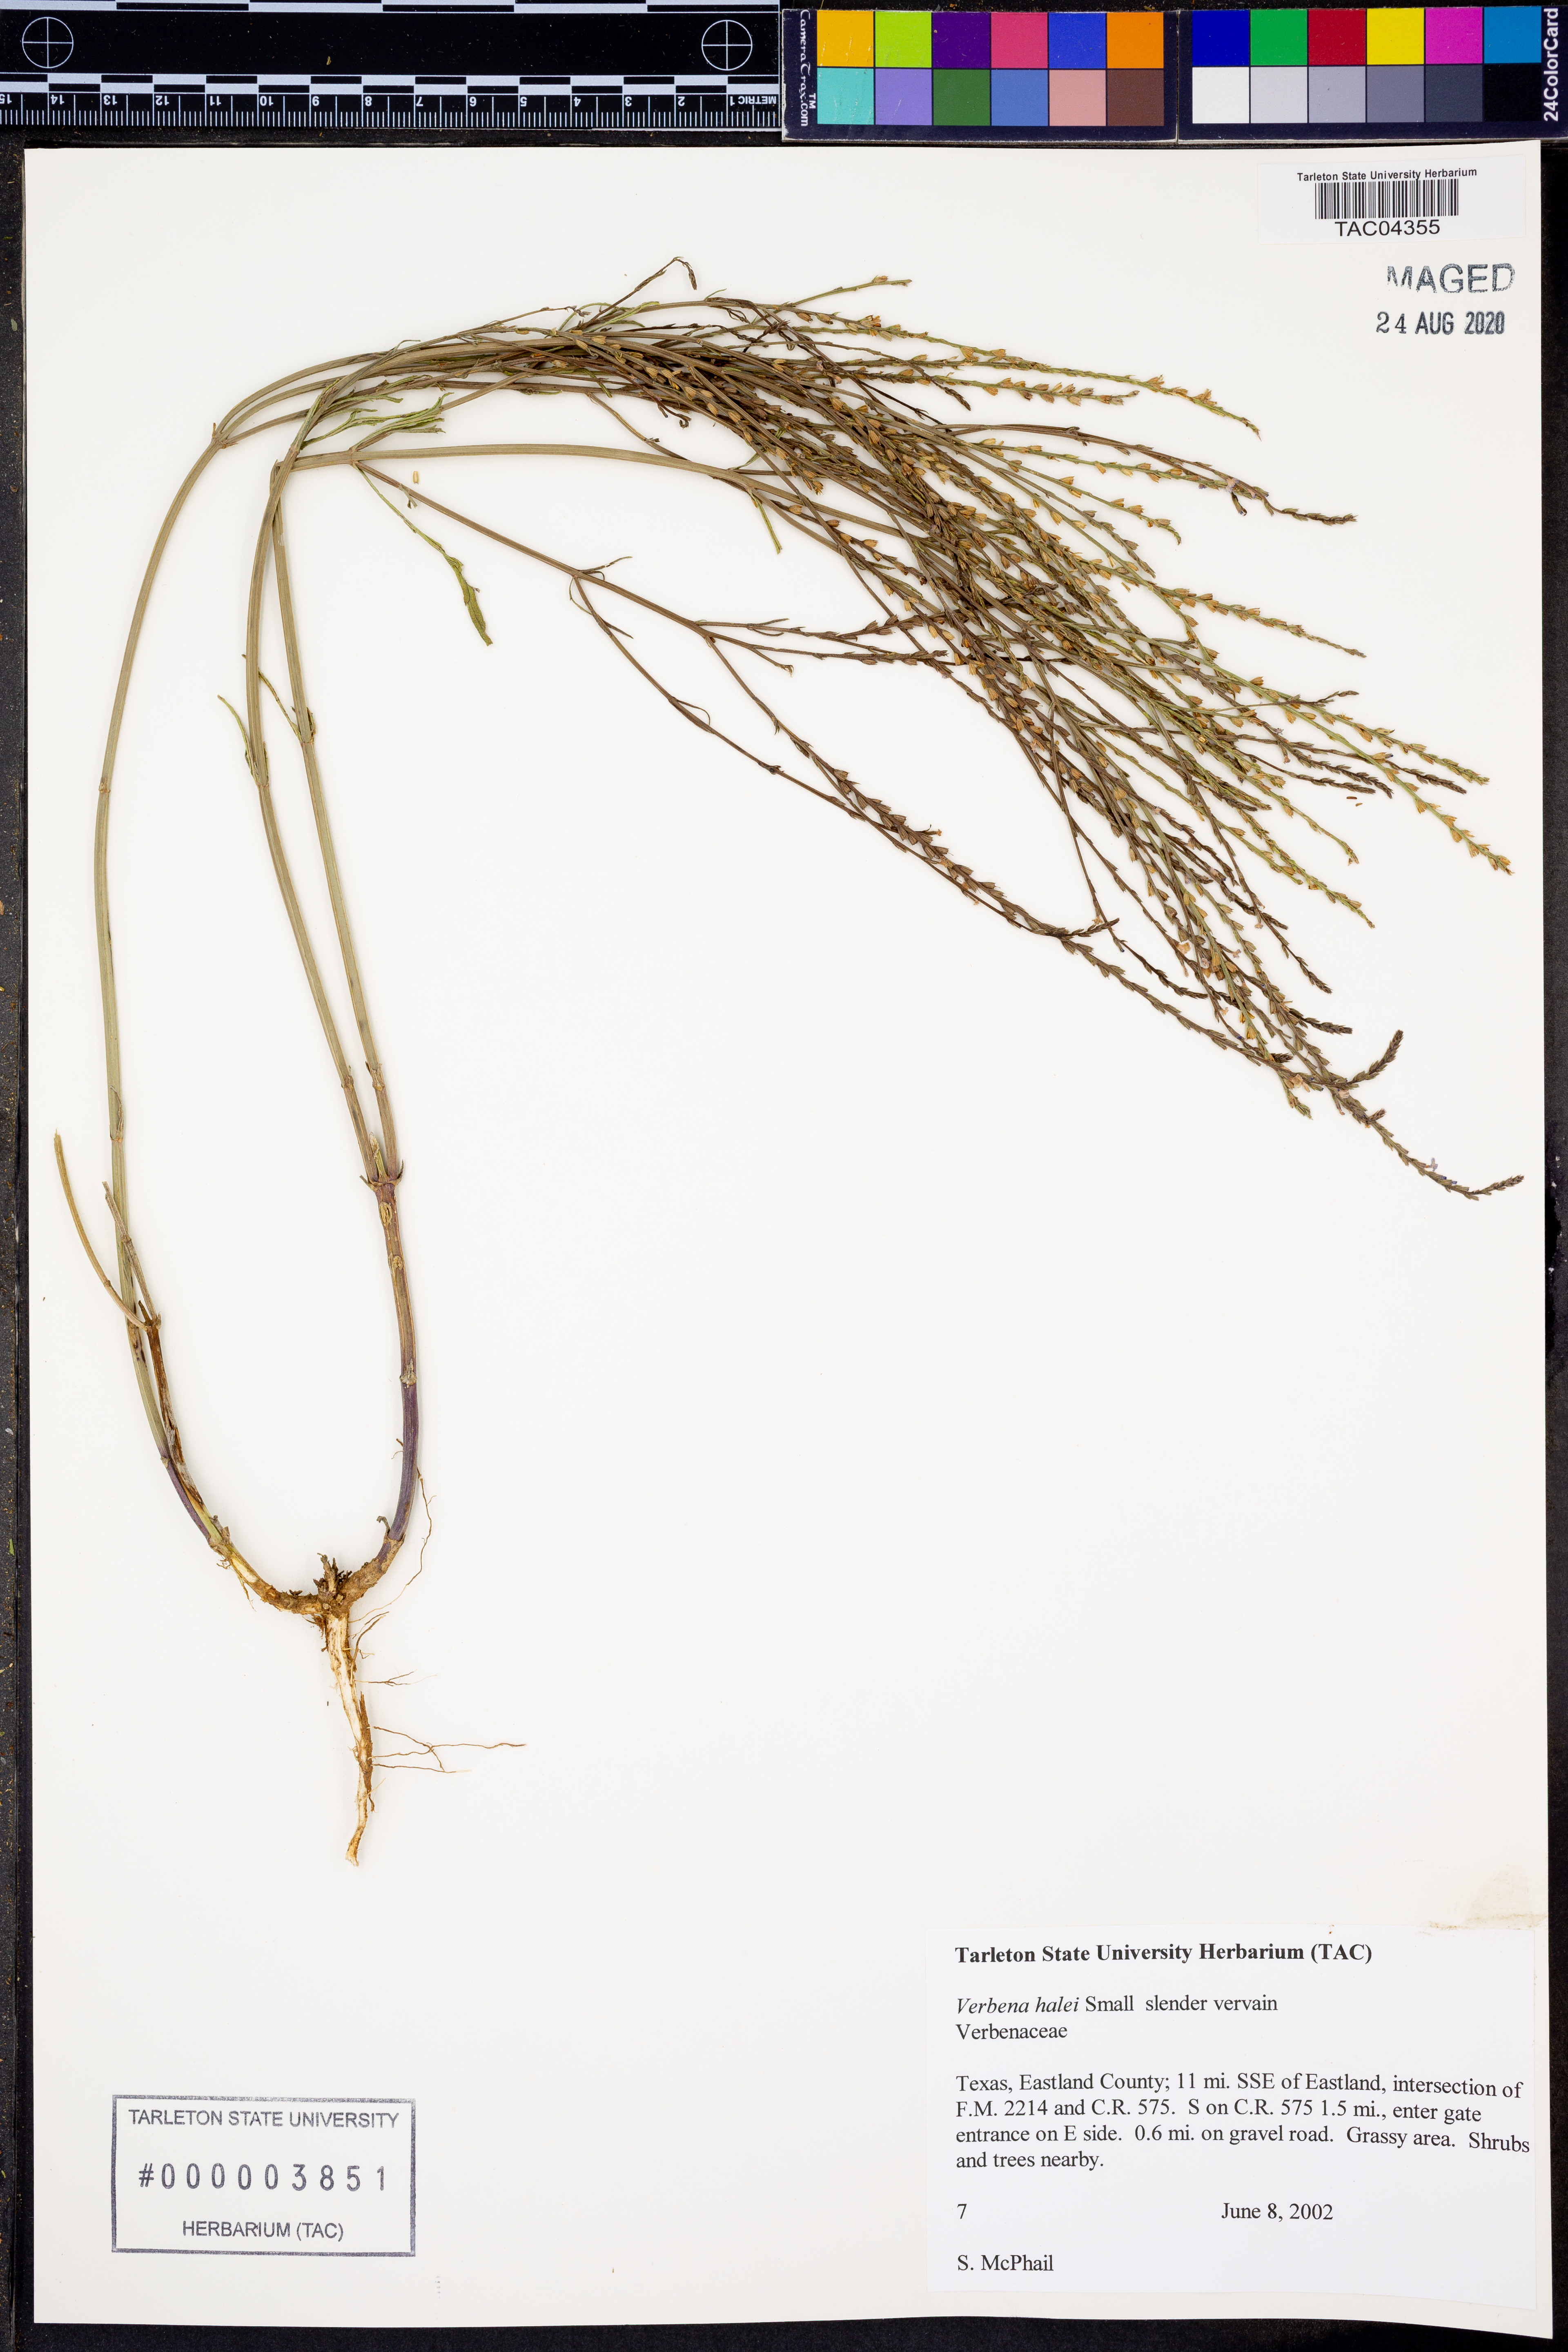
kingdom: Plantae
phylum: Tracheophyta
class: Magnoliopsida
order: Lamiales
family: Verbenaceae
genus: Verbena
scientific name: Verbena halei
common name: Texas vervain
